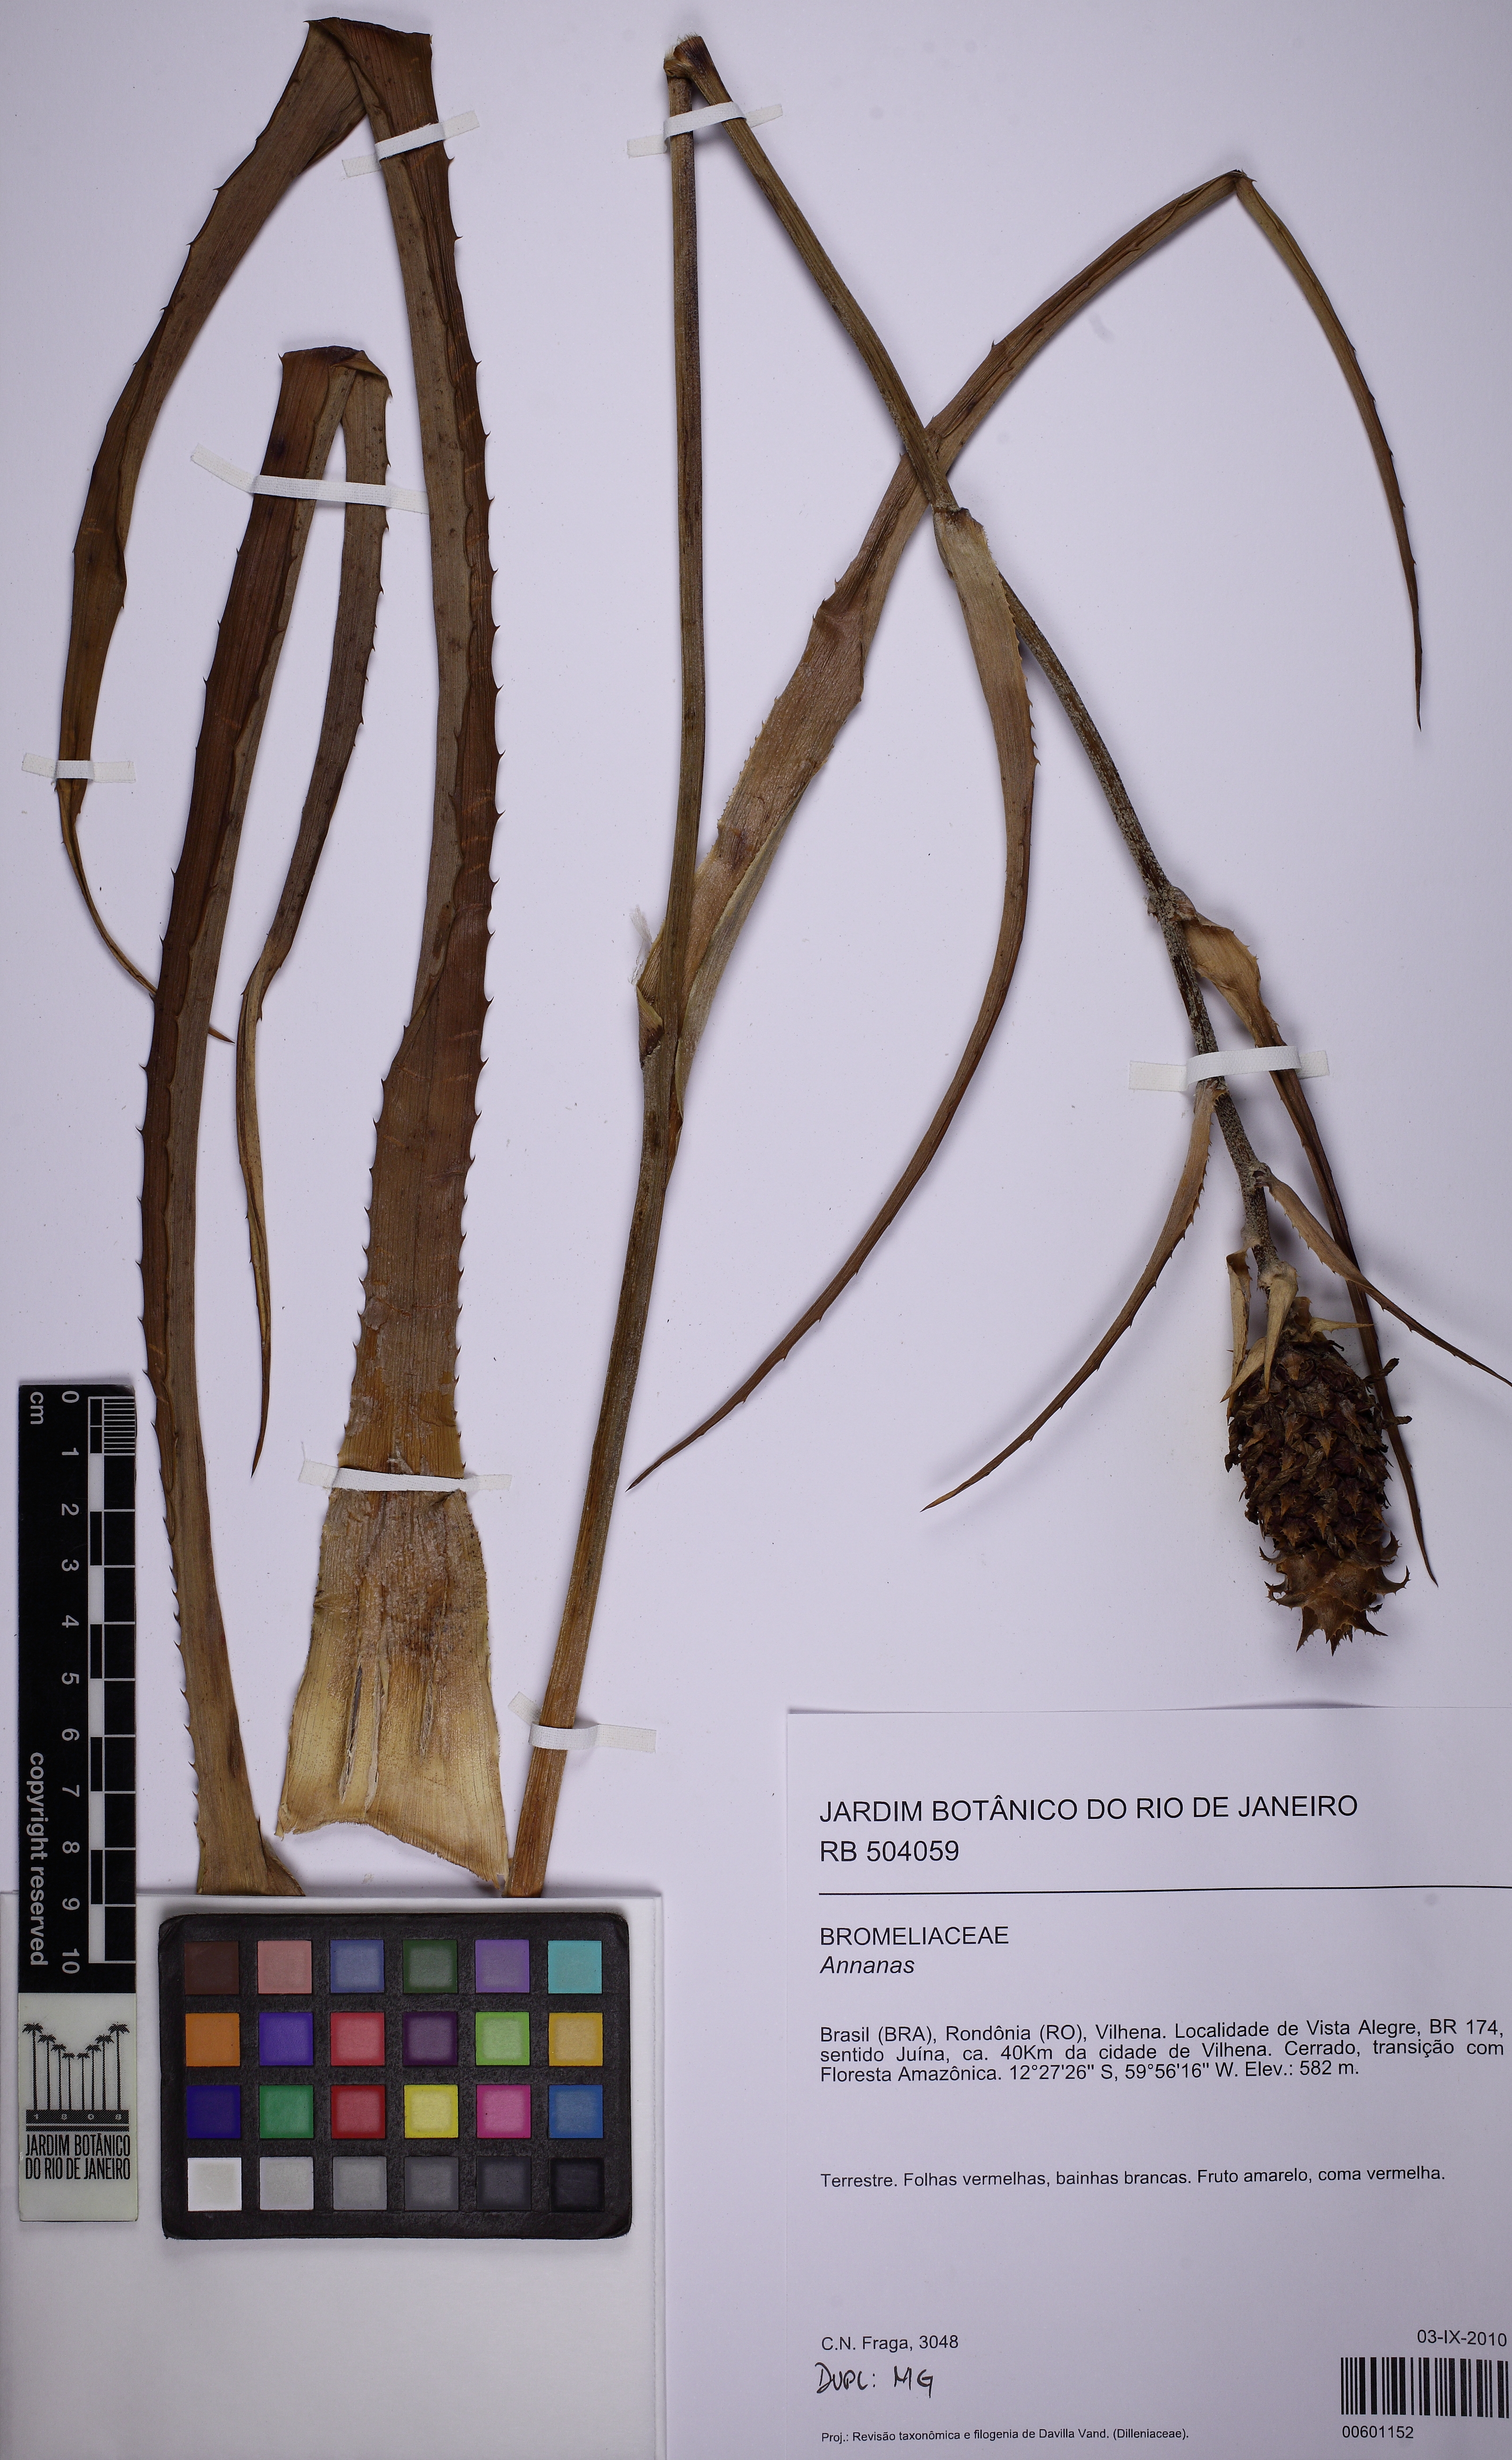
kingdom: Plantae
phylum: Tracheophyta
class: Liliopsida
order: Poales
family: Bromeliaceae
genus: Ananas
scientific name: Ananas
